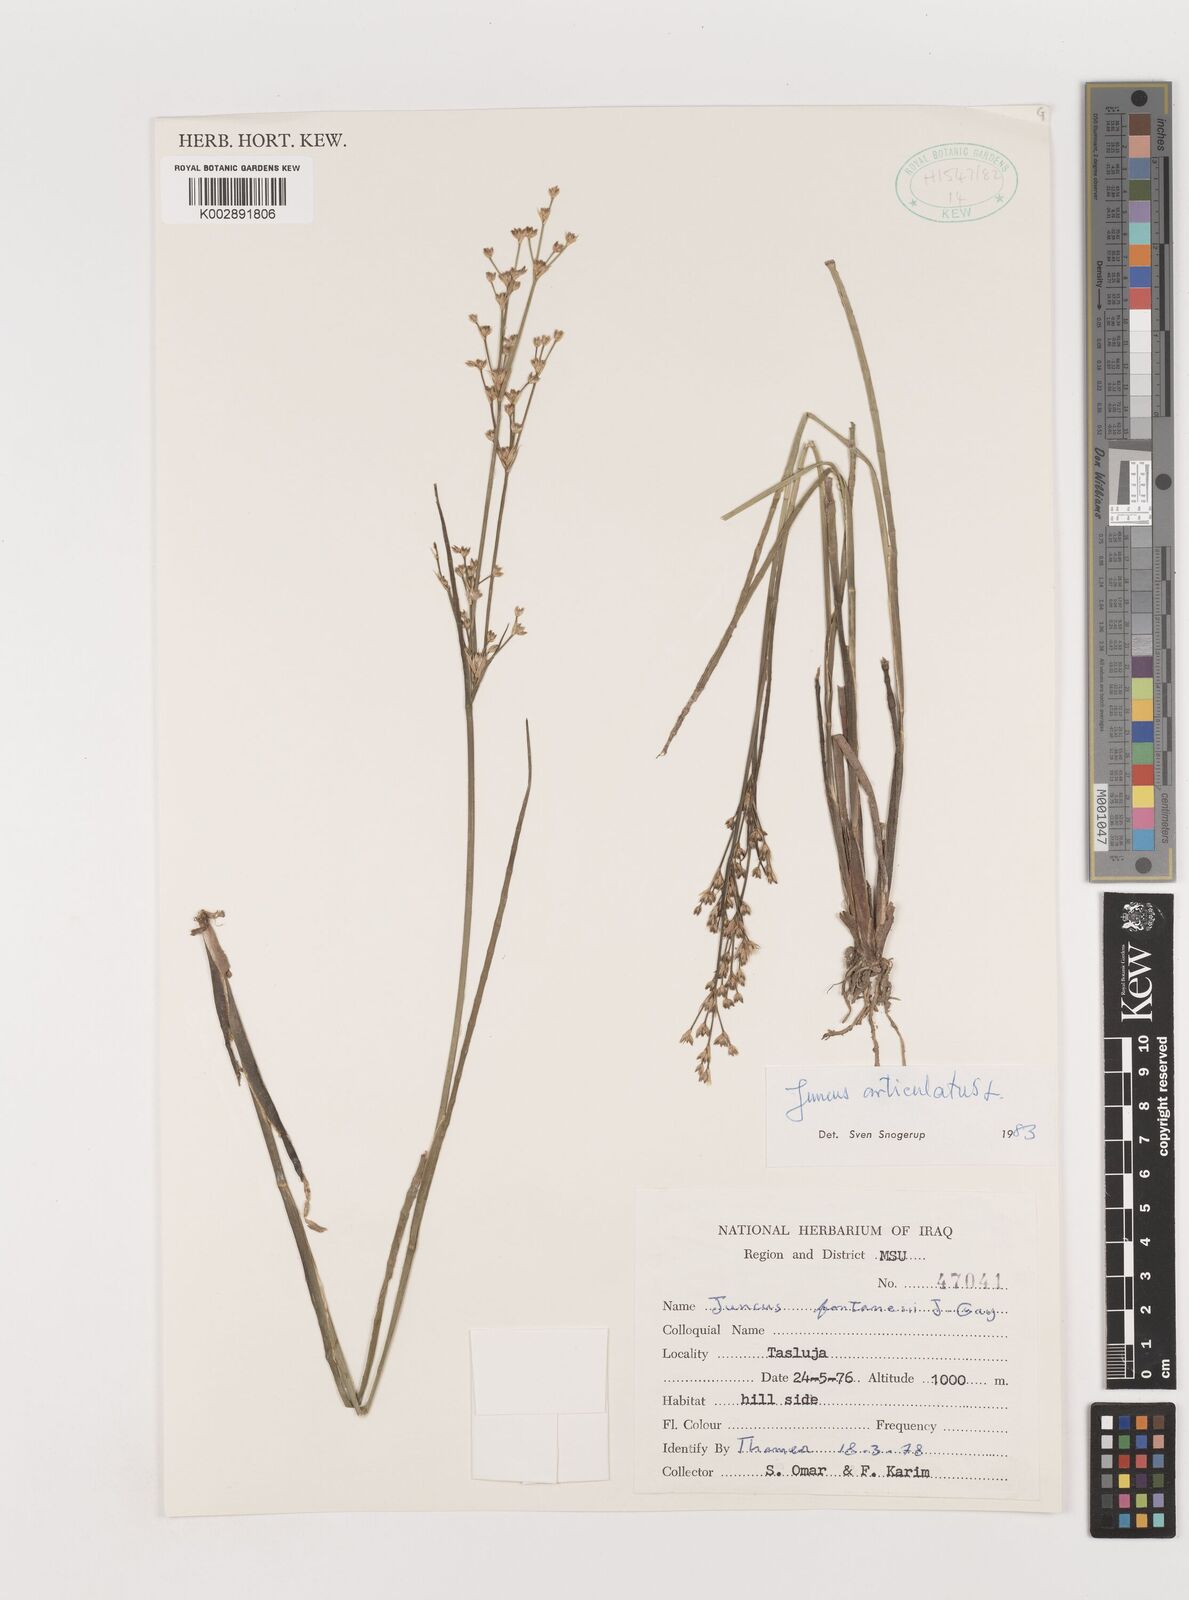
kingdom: Plantae
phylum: Tracheophyta
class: Liliopsida
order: Poales
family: Juncaceae
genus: Juncus
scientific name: Juncus articulatus
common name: Jointed rush
